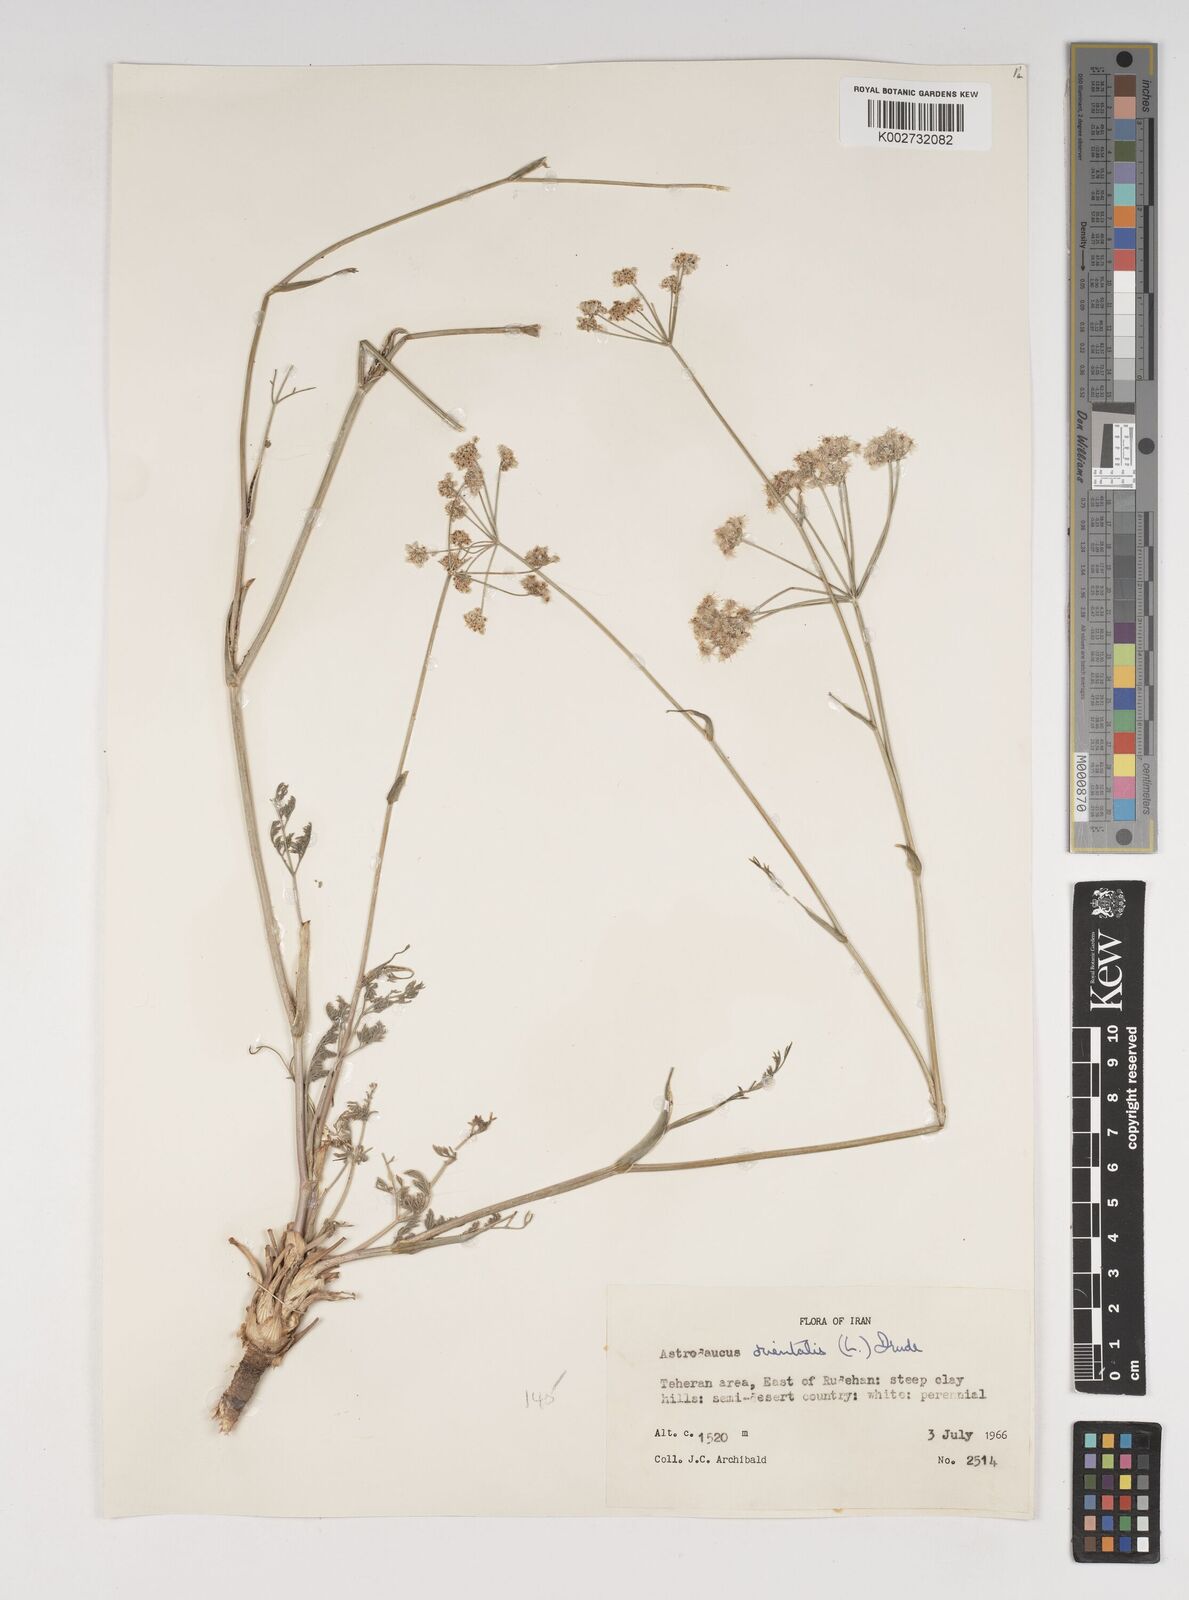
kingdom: Plantae
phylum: Tracheophyta
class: Magnoliopsida
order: Apiales
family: Apiaceae
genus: Astrodaucus
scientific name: Astrodaucus
